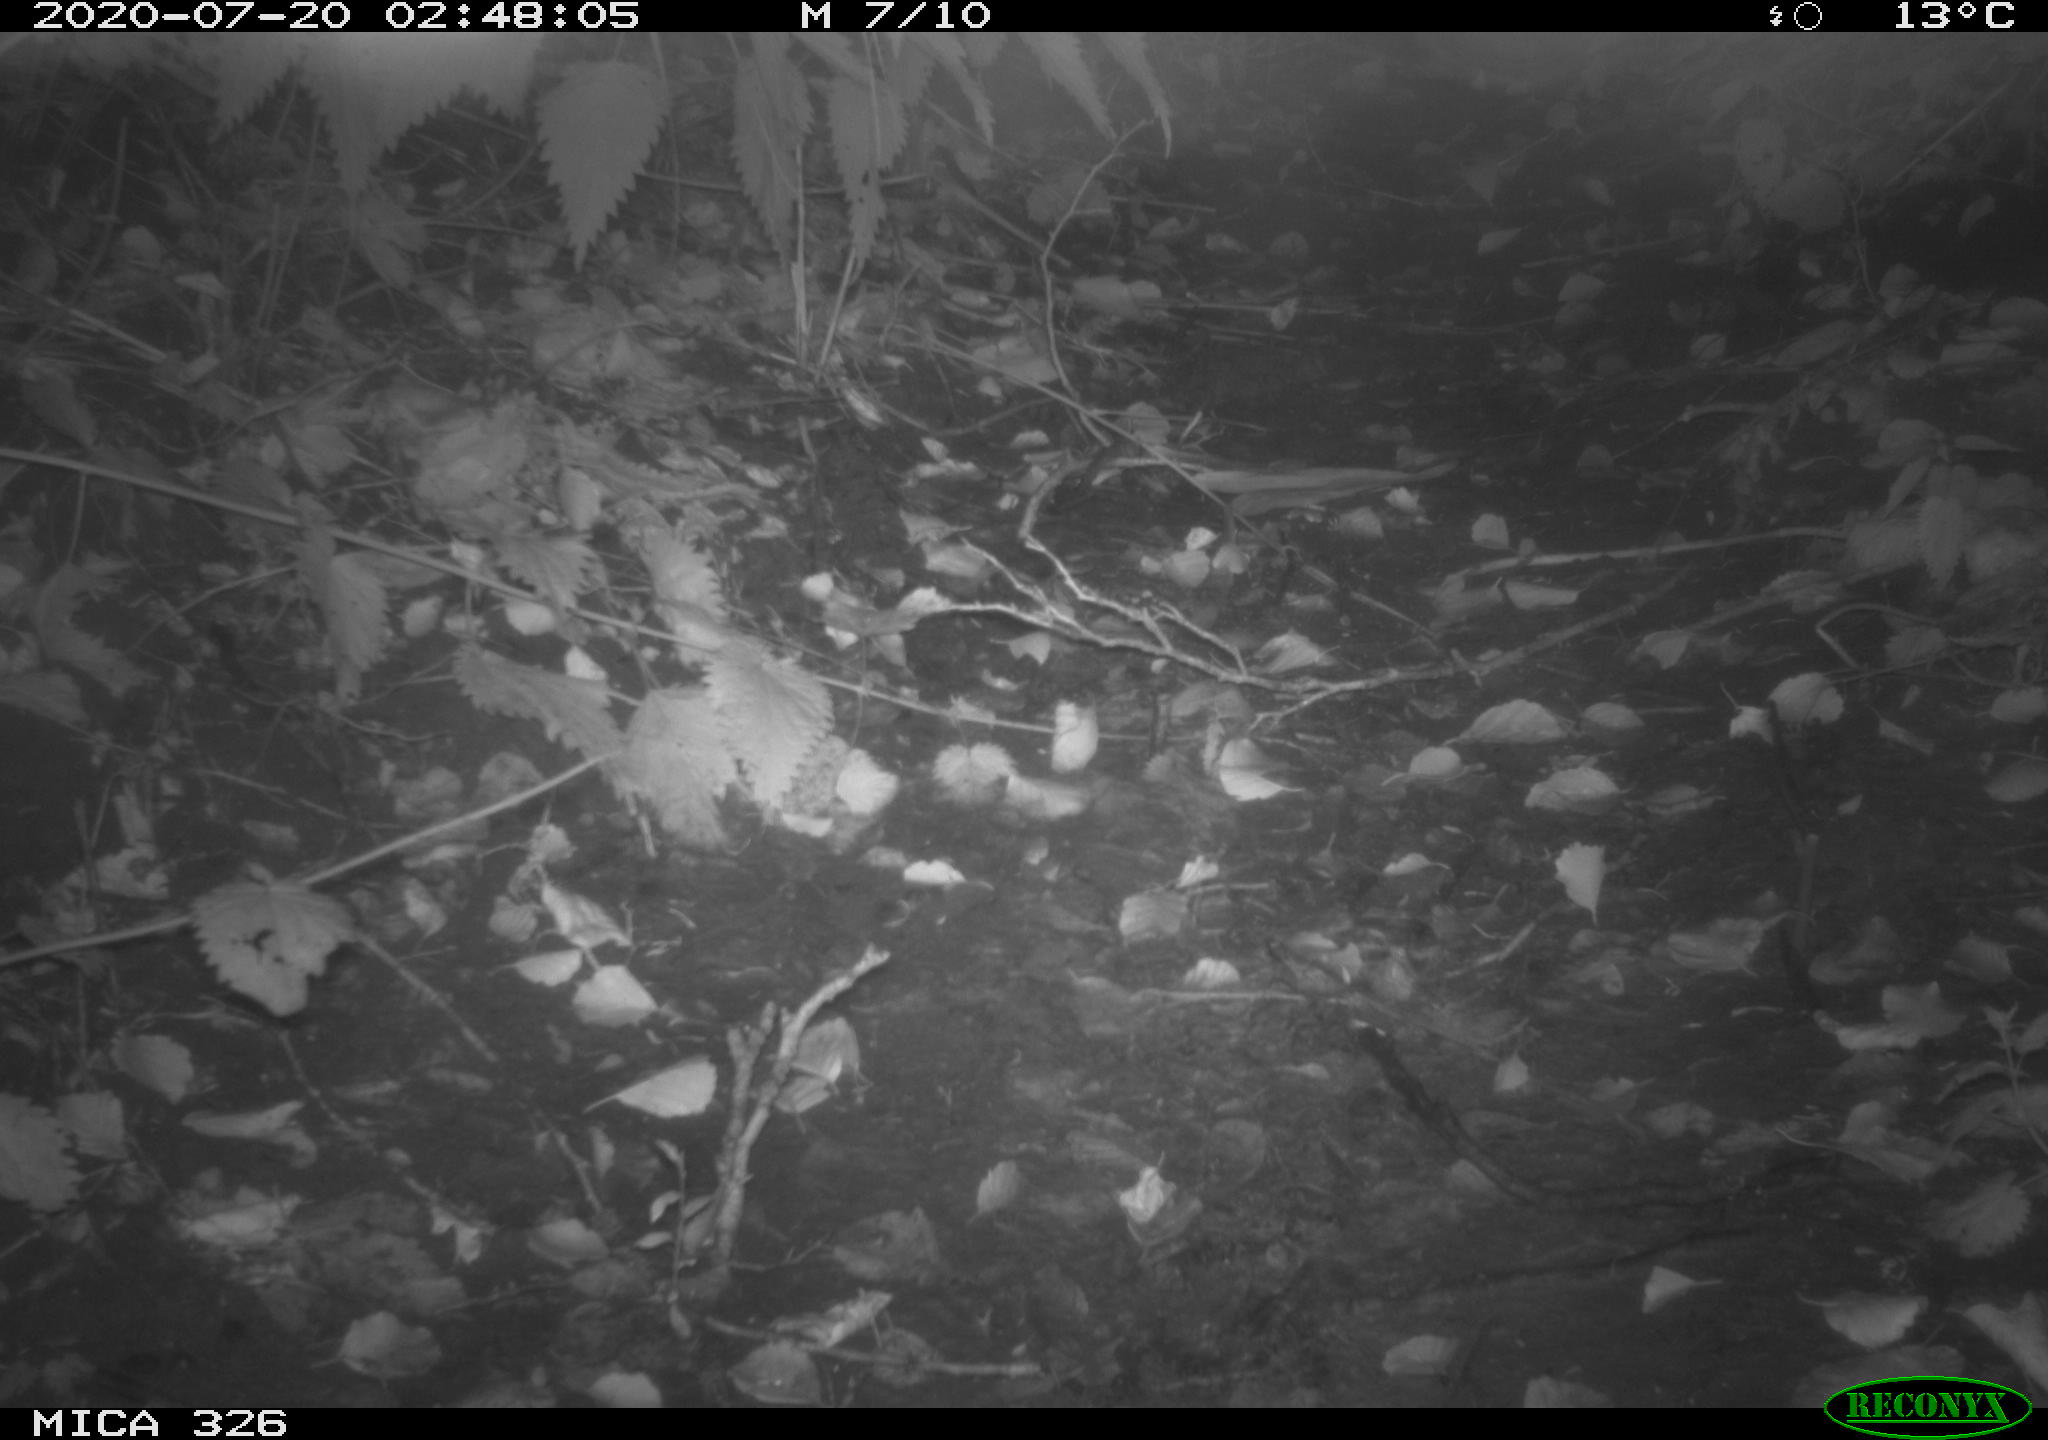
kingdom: Animalia
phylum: Chordata
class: Mammalia
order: Carnivora
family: Mustelidae
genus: Mustela
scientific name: Mustela putorius
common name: European polecat
